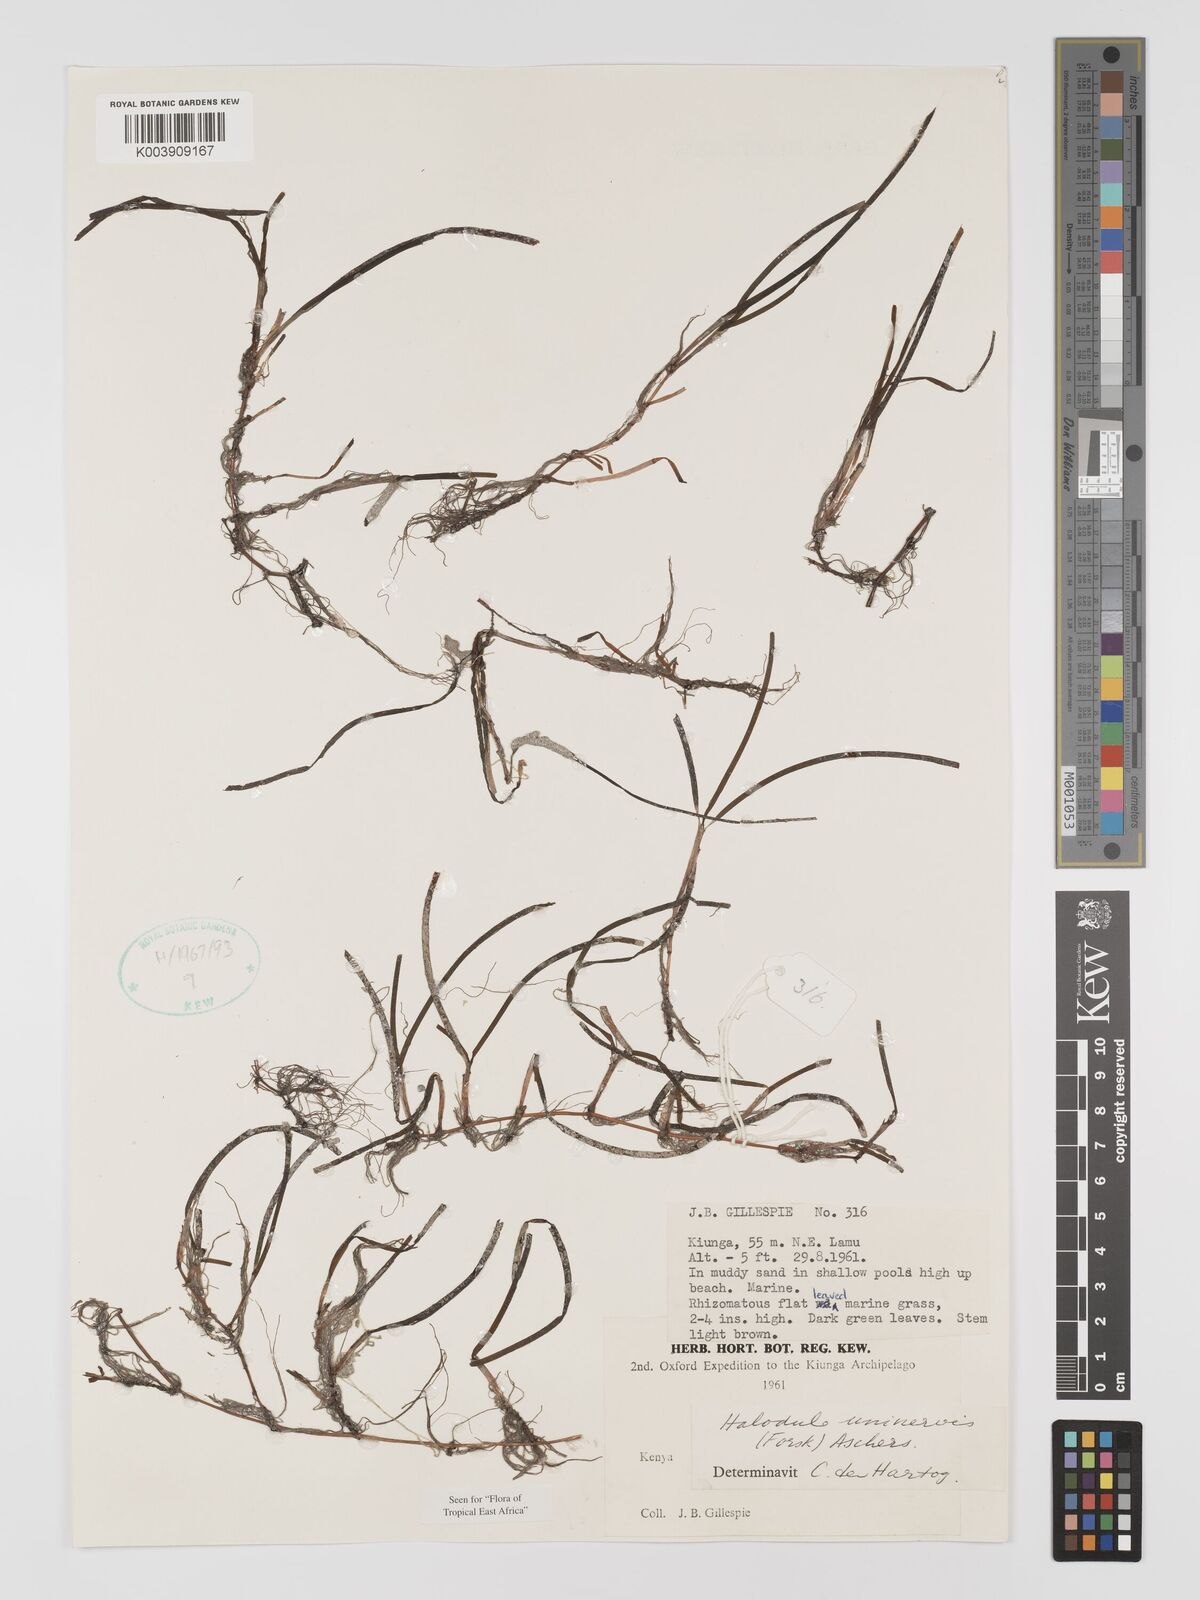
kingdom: Plantae
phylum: Tracheophyta
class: Liliopsida
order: Alismatales
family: Cymodoceaceae
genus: Halodule
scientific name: Halodule uninervis
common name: Narrowleaf seagrass
